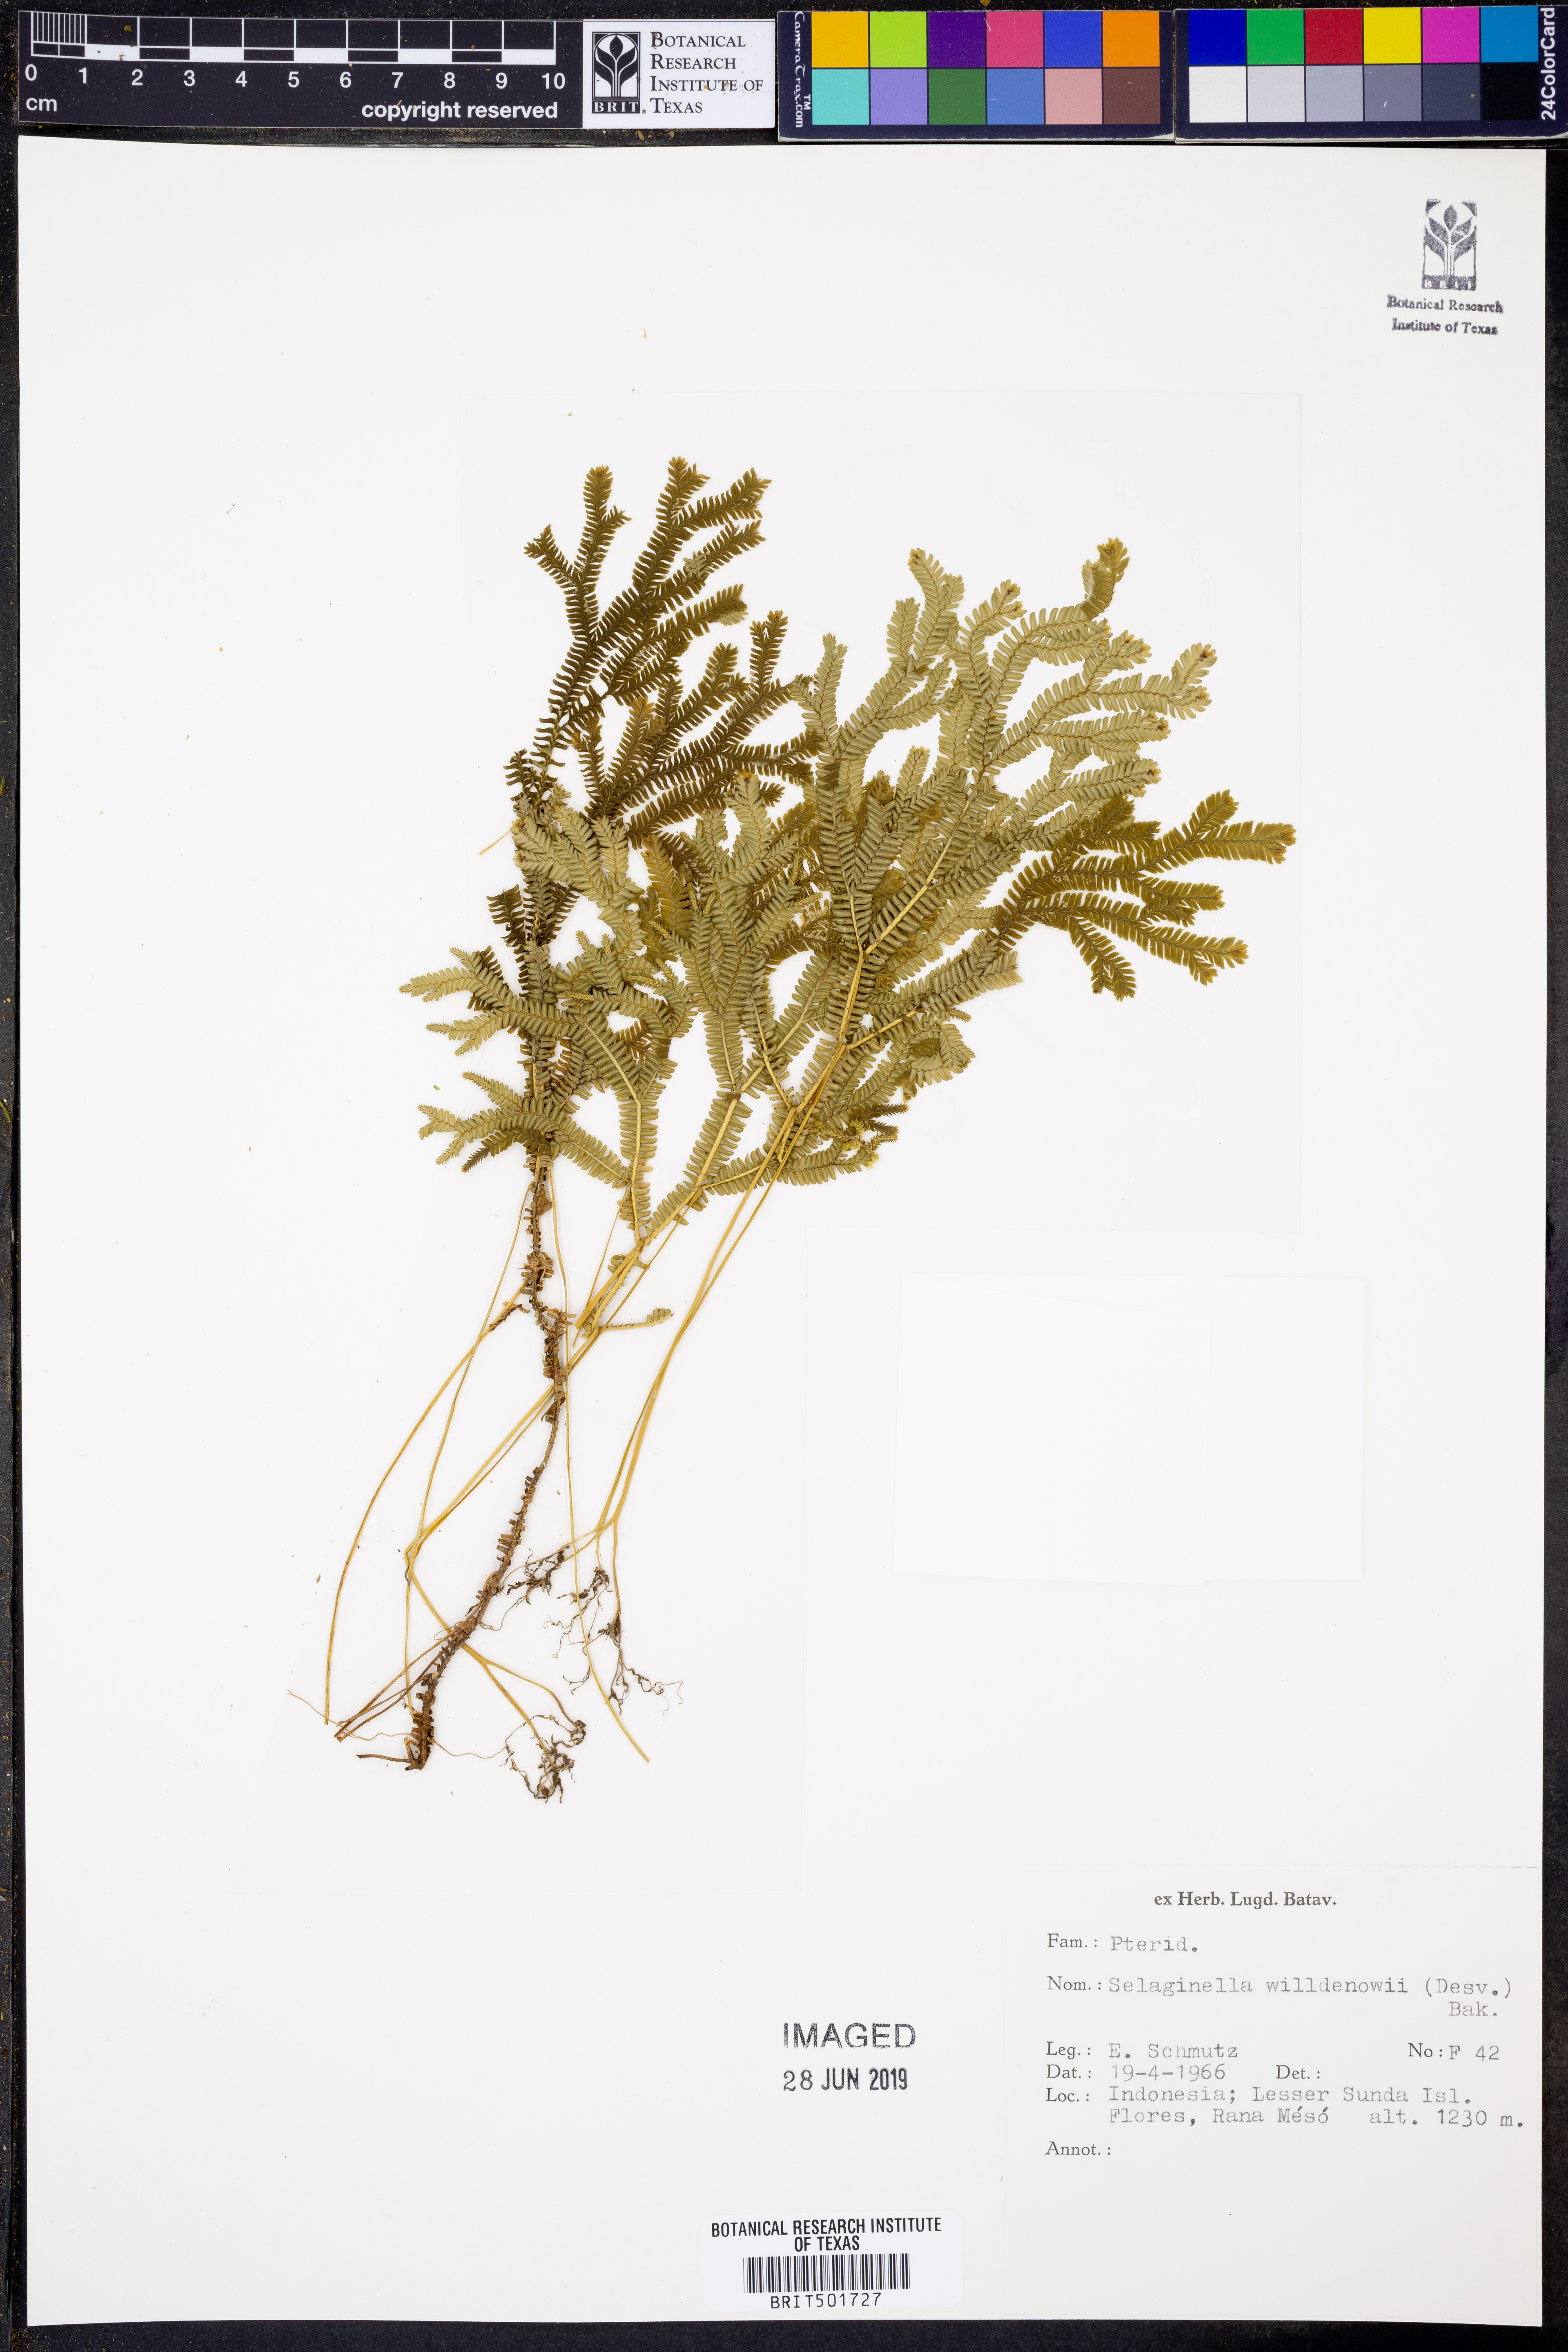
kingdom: Plantae
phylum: Tracheophyta
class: Lycopodiopsida
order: Selaginellales
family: Selaginellaceae
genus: Selaginella
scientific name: Selaginella willdenowii
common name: Willdenow's spikemoss
